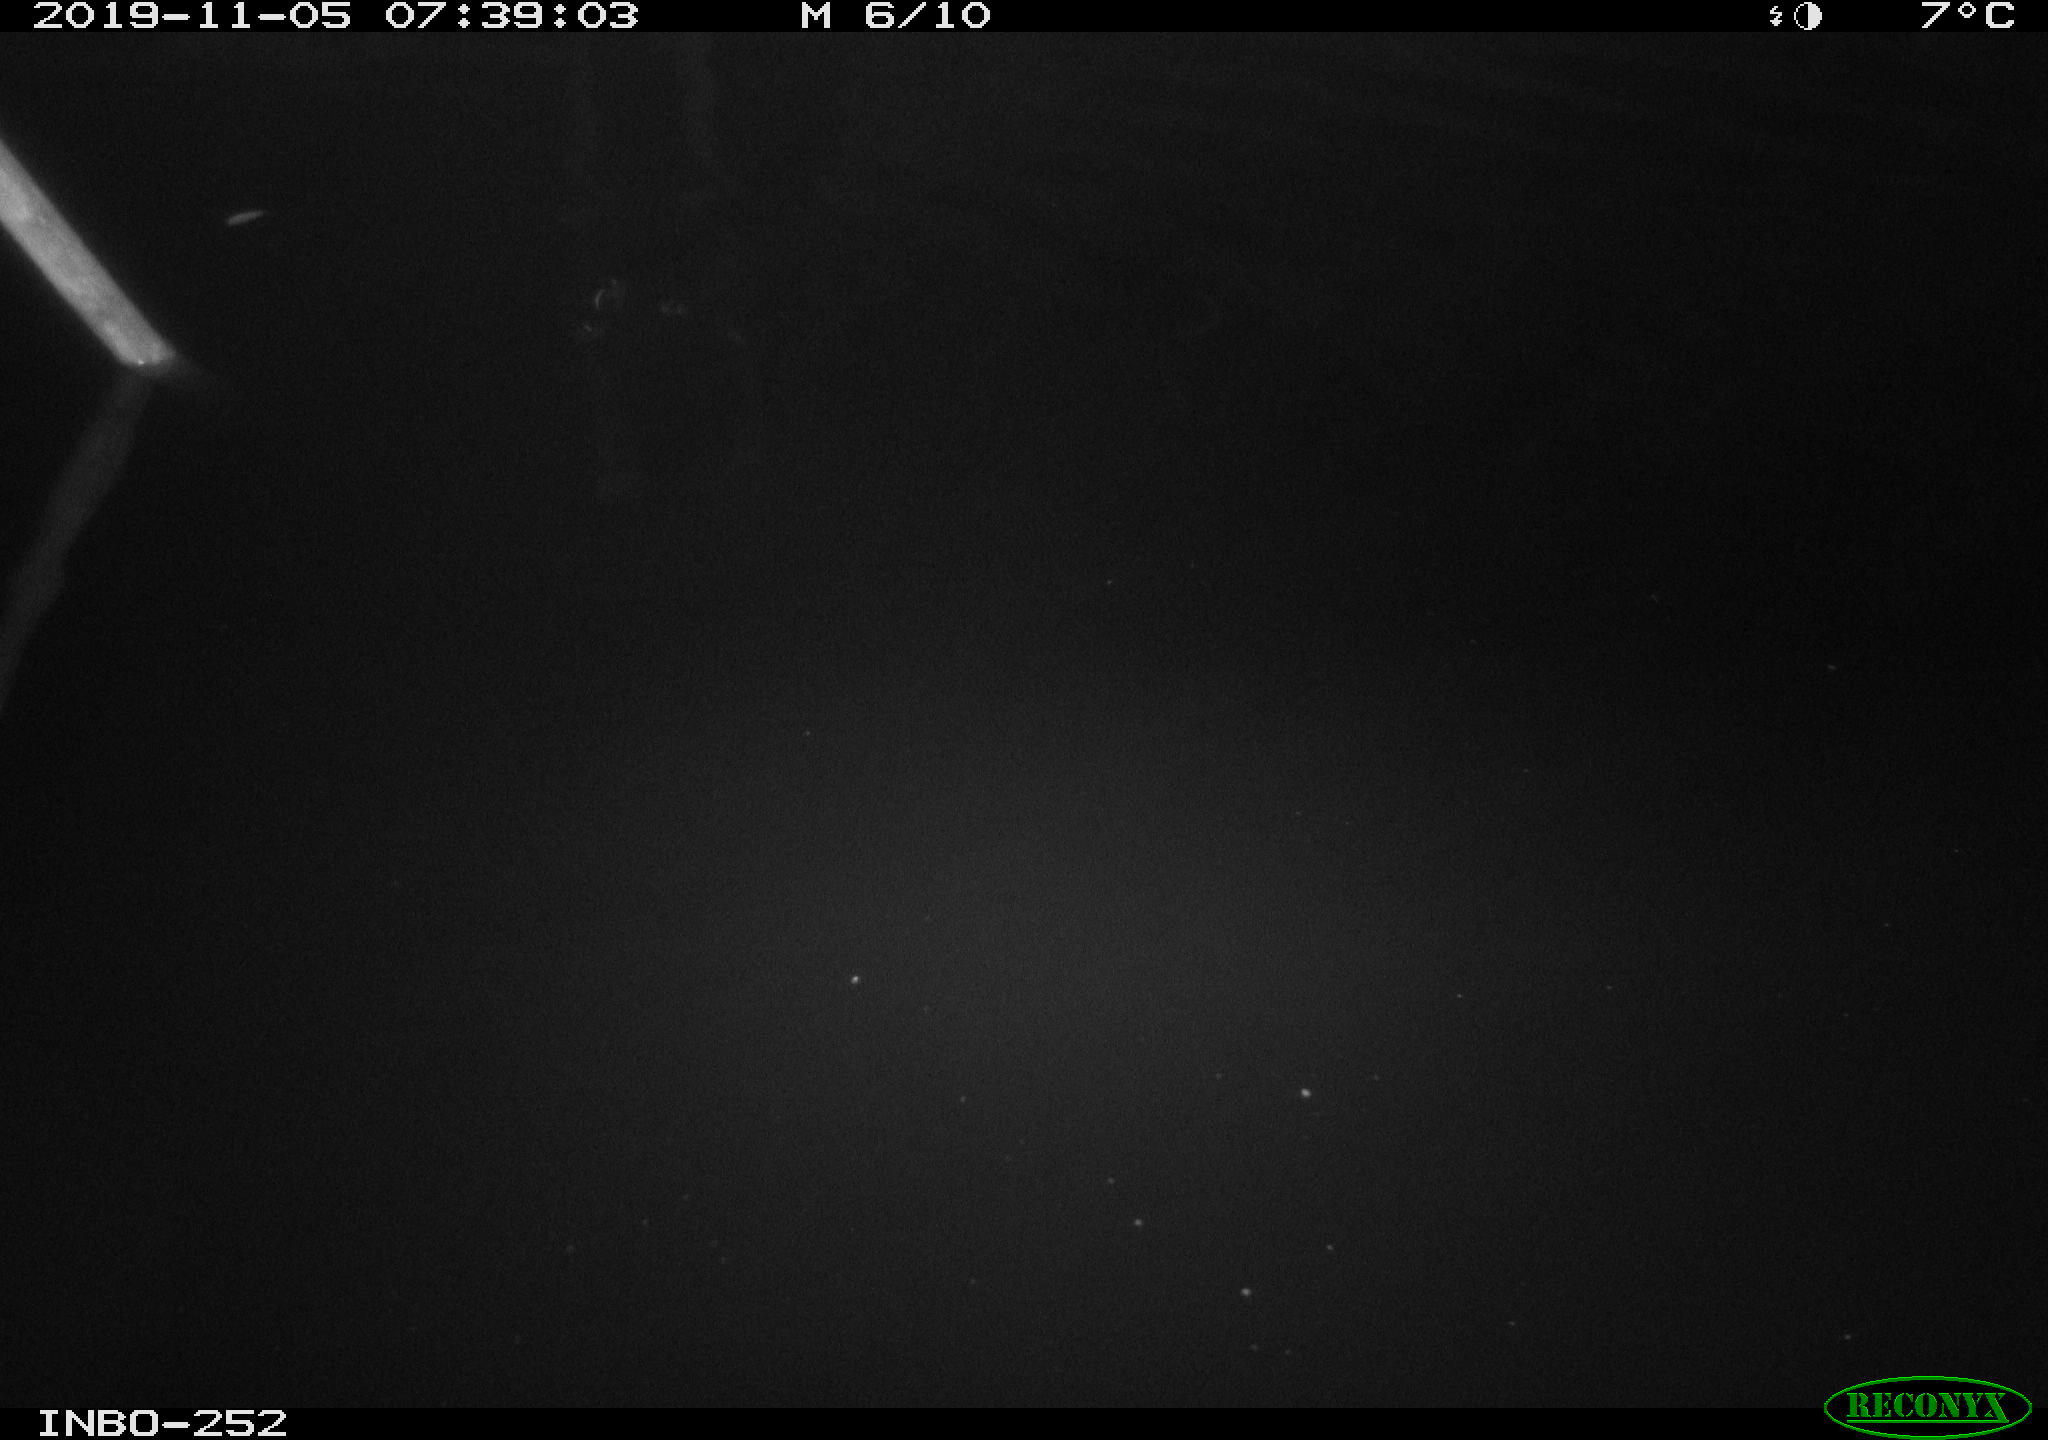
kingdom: Animalia
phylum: Chordata
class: Aves
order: Anseriformes
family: Anatidae
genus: Anas
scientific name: Anas platyrhynchos
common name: Mallard
